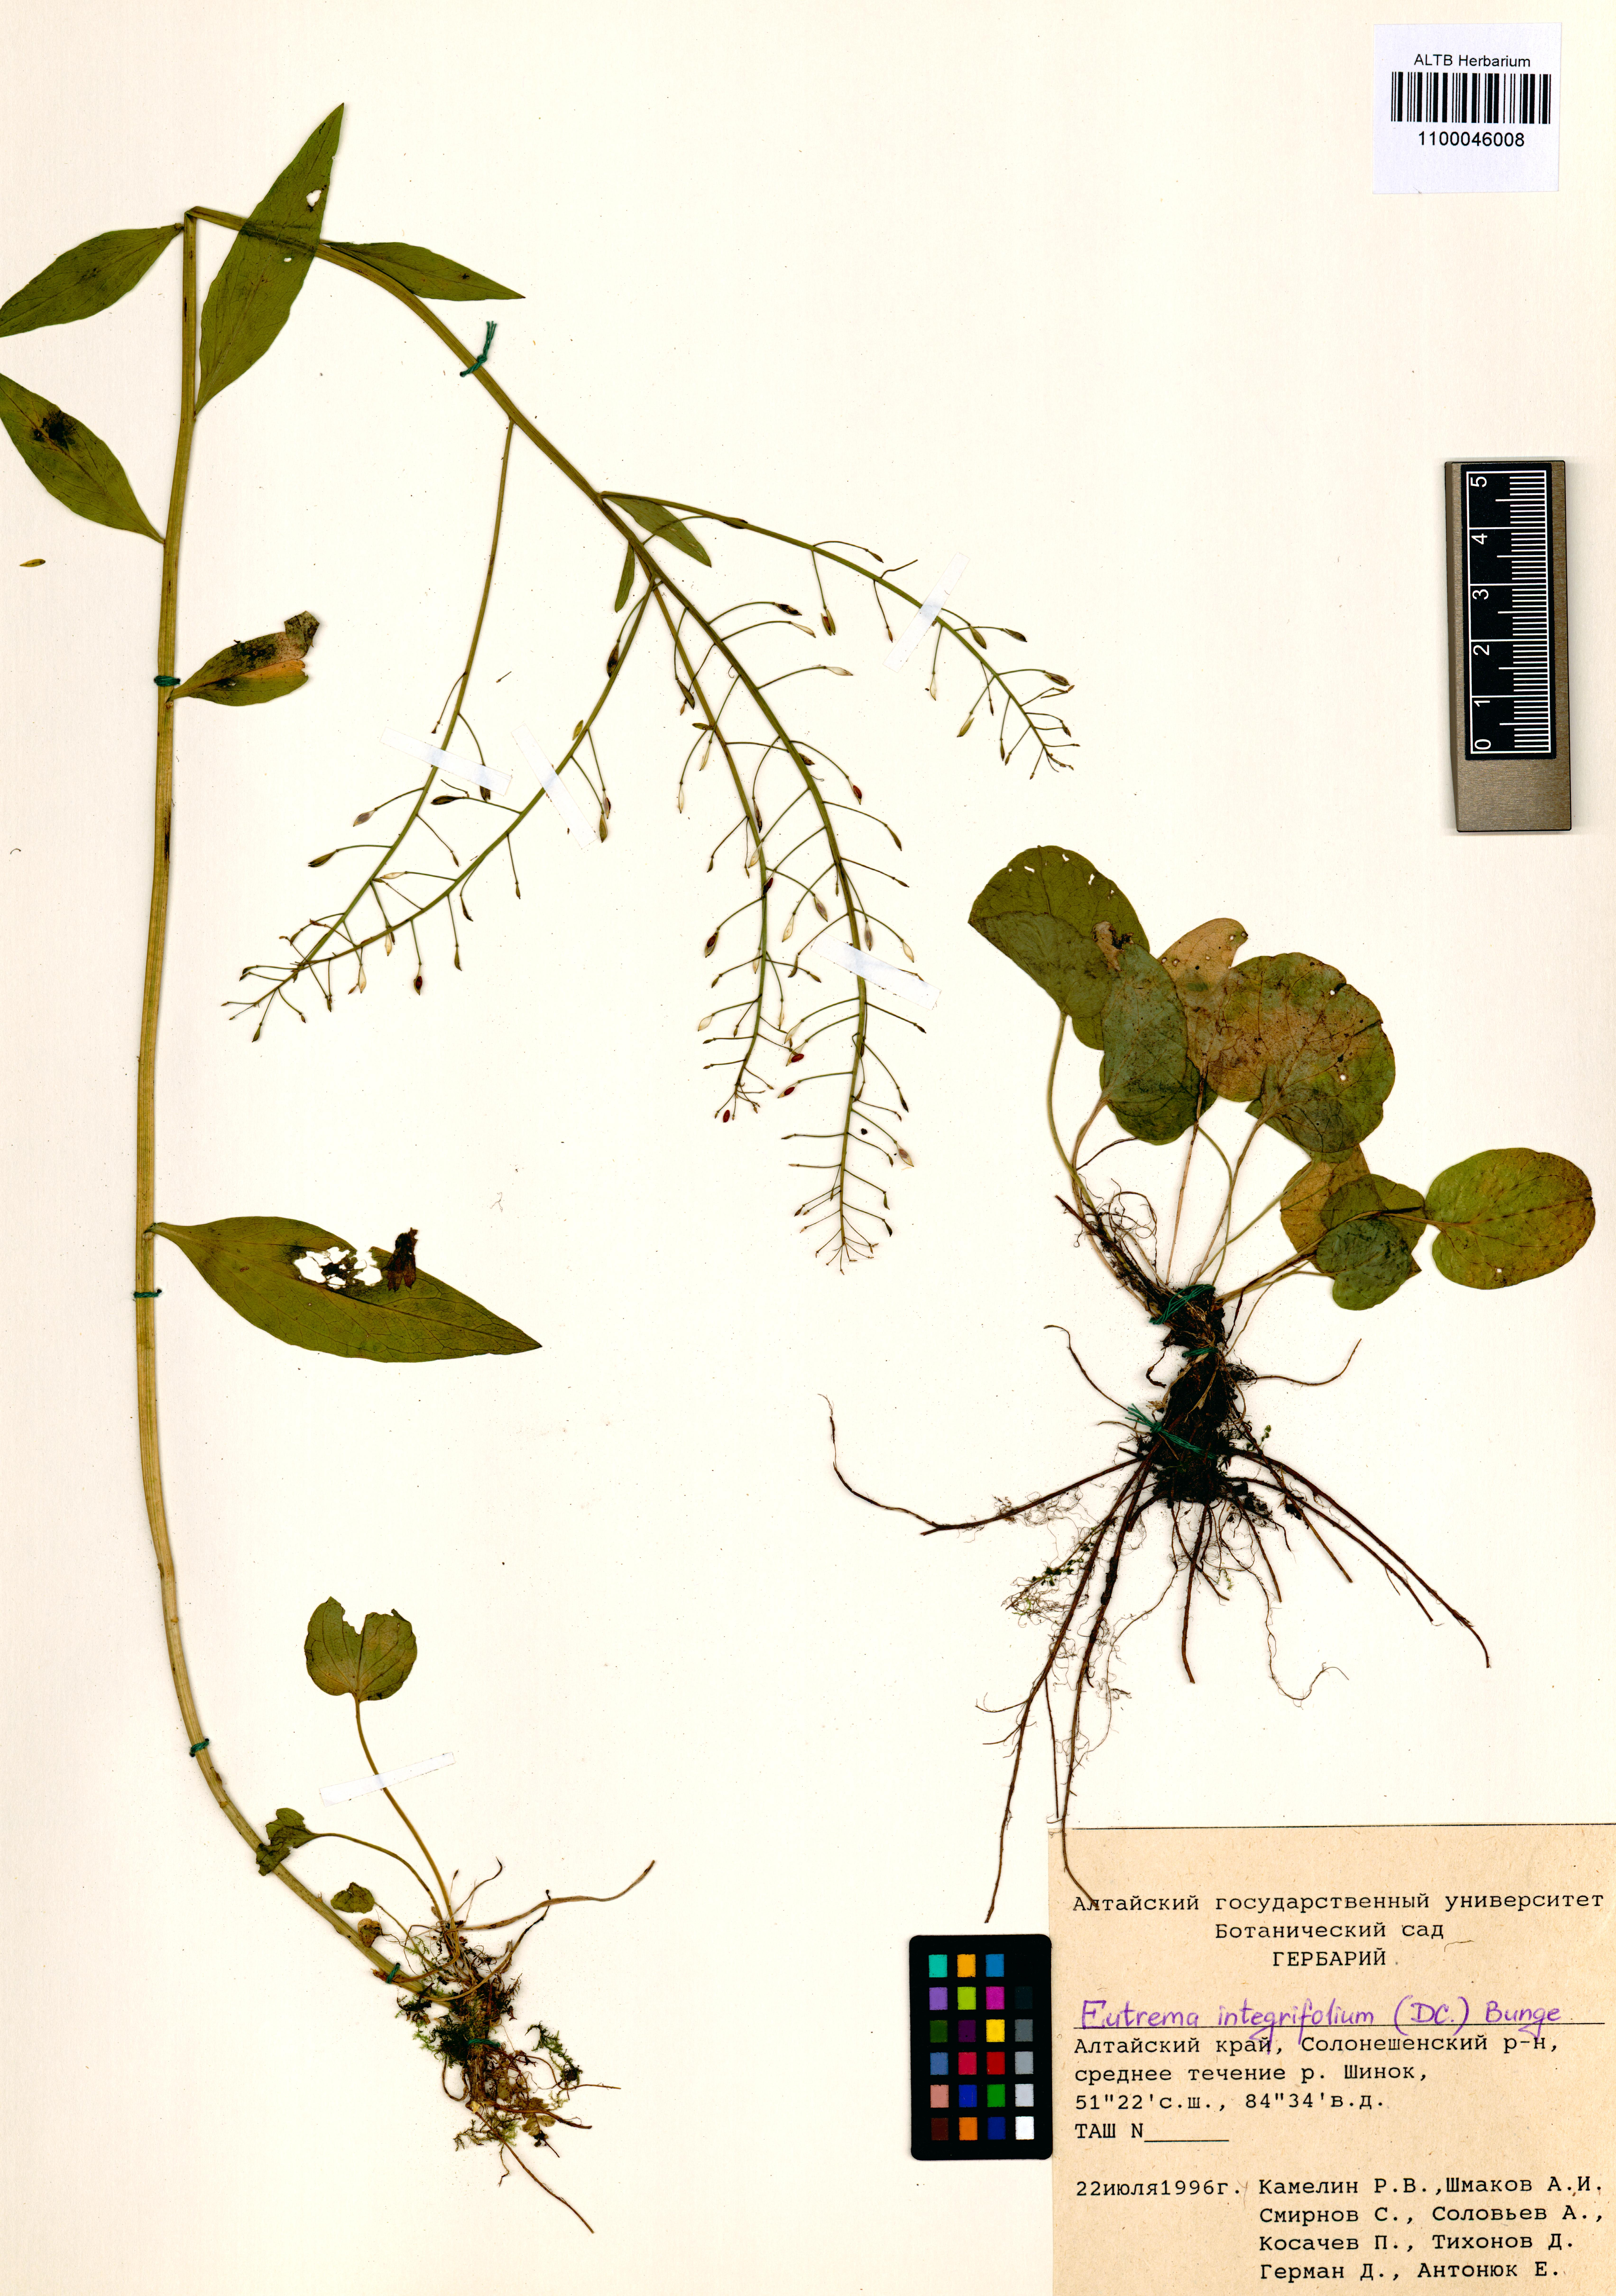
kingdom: Plantae
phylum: Tracheophyta
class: Magnoliopsida
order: Brassicales
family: Brassicaceae
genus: Eutrema
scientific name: Eutrema integrifolium
